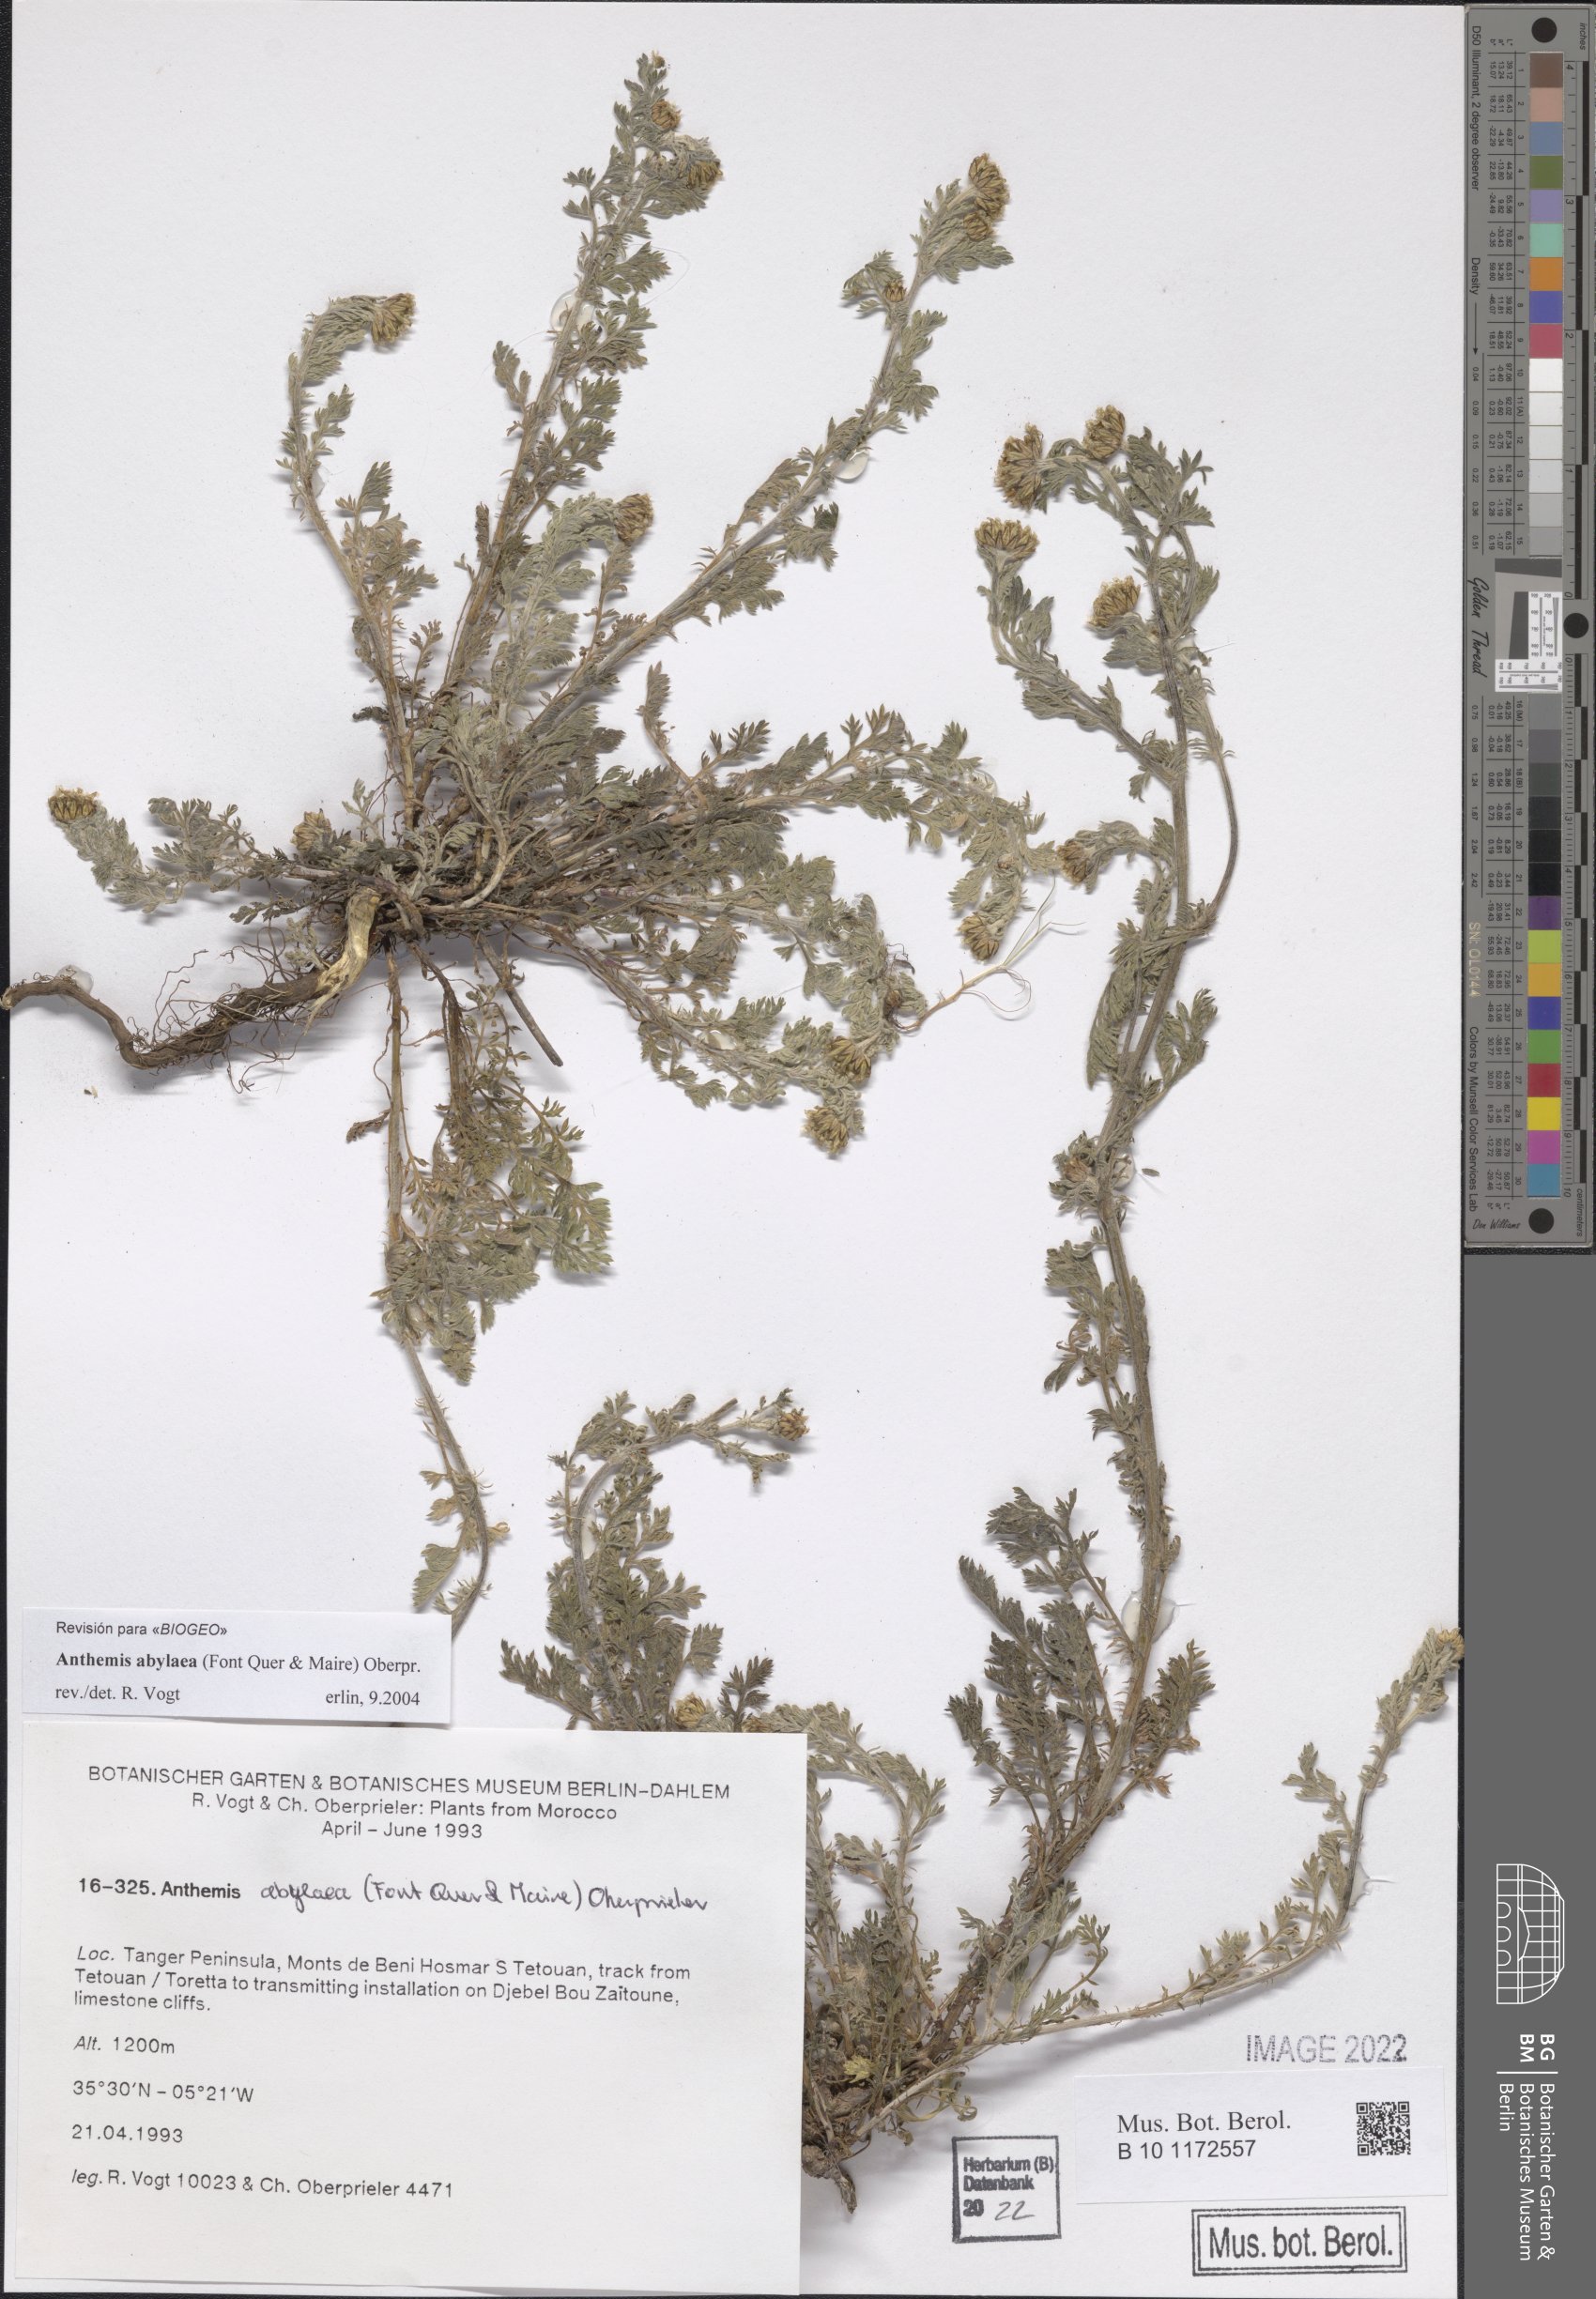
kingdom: Plantae
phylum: Tracheophyta
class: Magnoliopsida
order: Asterales
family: Asteraceae
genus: Anthemis
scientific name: Anthemis abylaea
